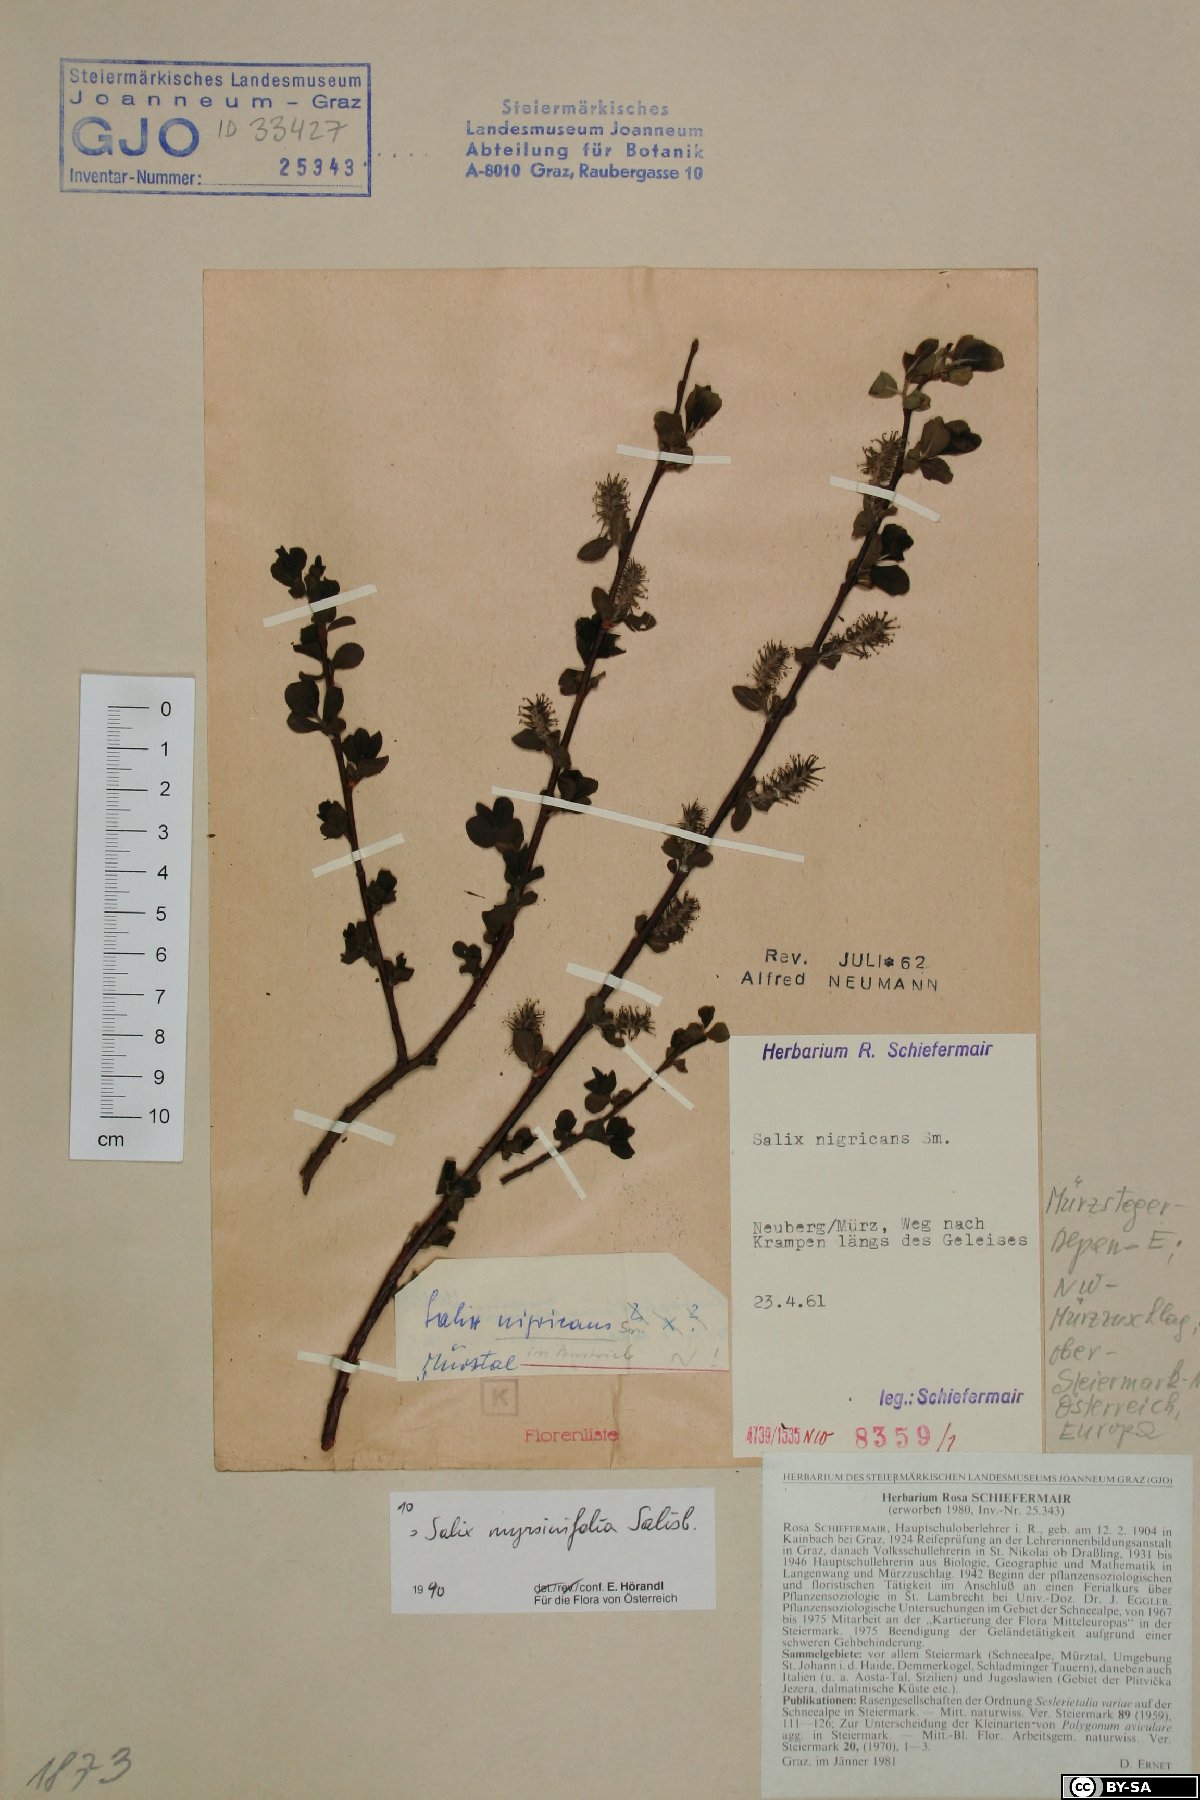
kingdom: Plantae
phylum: Tracheophyta
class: Magnoliopsida
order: Malpighiales
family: Salicaceae
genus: Salix
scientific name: Salix myrsinifolia
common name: Dark-leaved willow
